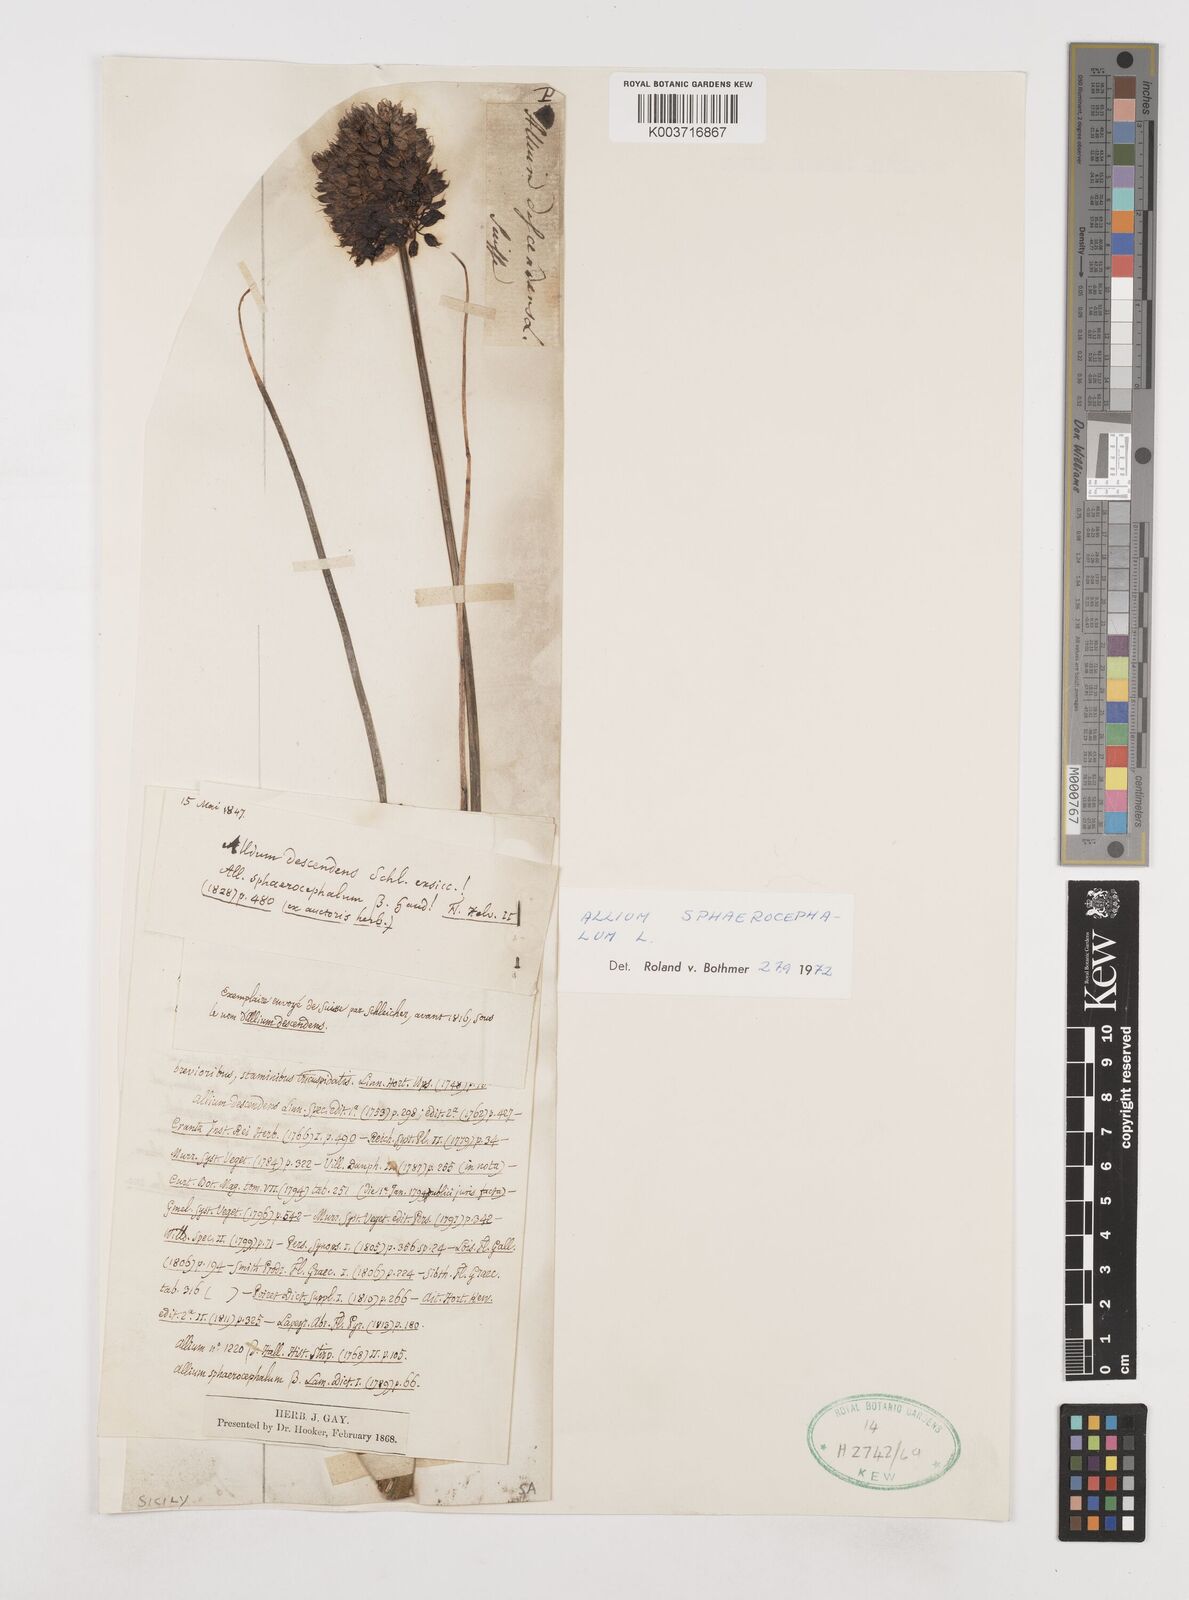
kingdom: Plantae
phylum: Tracheophyta
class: Liliopsida
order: Asparagales
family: Amaryllidaceae
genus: Allium
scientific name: Allium sphaerocephalon
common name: Round-headed leek
